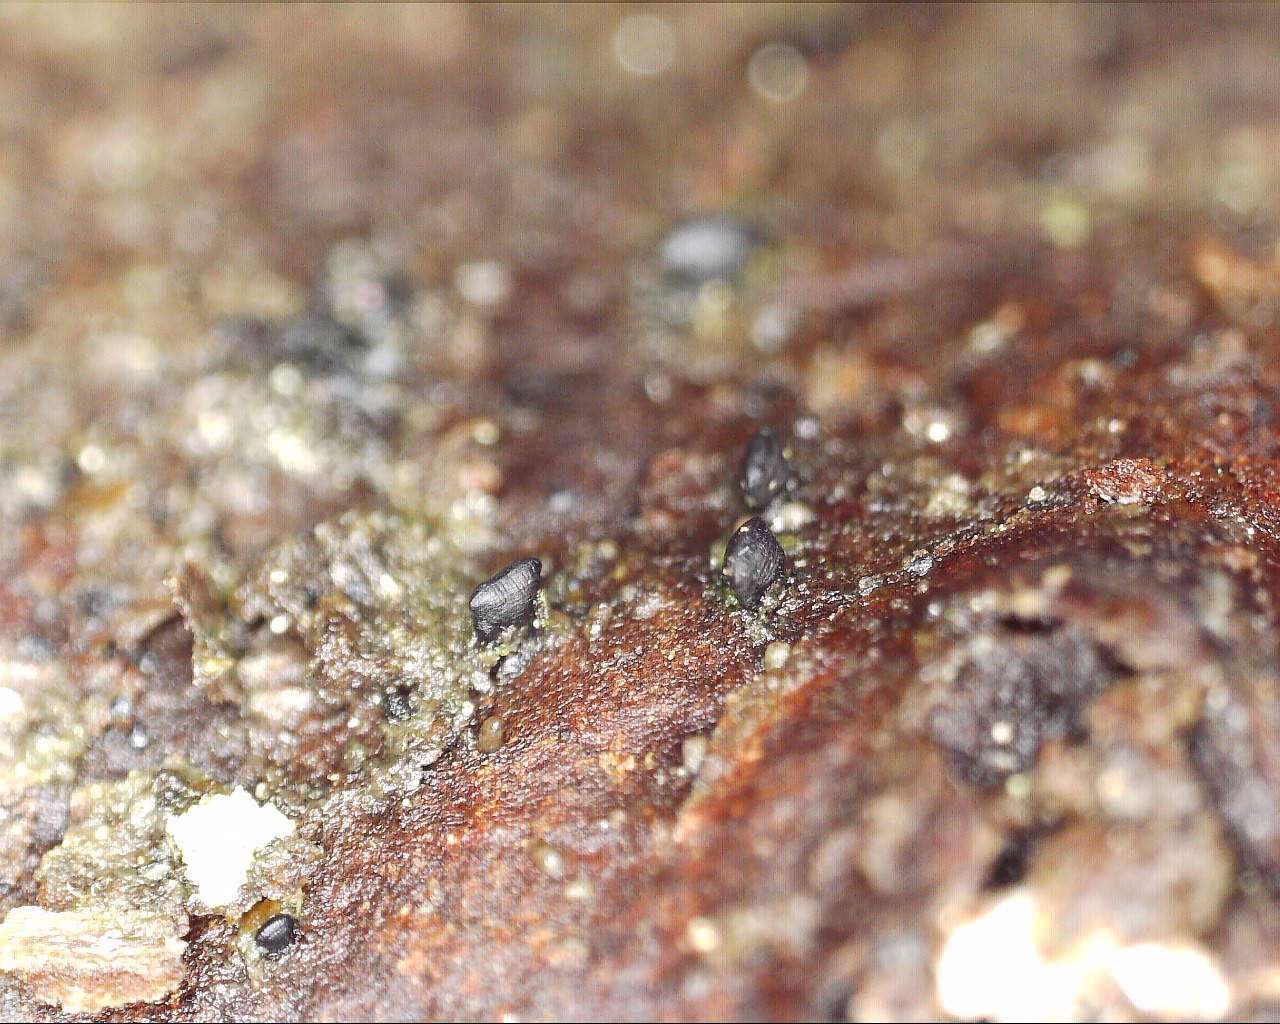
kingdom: Fungi
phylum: Ascomycota
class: Dothideomycetes
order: Mytilinidiales
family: Mytilinidiaceae
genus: Mytilinidion
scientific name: Mytilinidion rhenanum
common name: almindelig kulmusling
